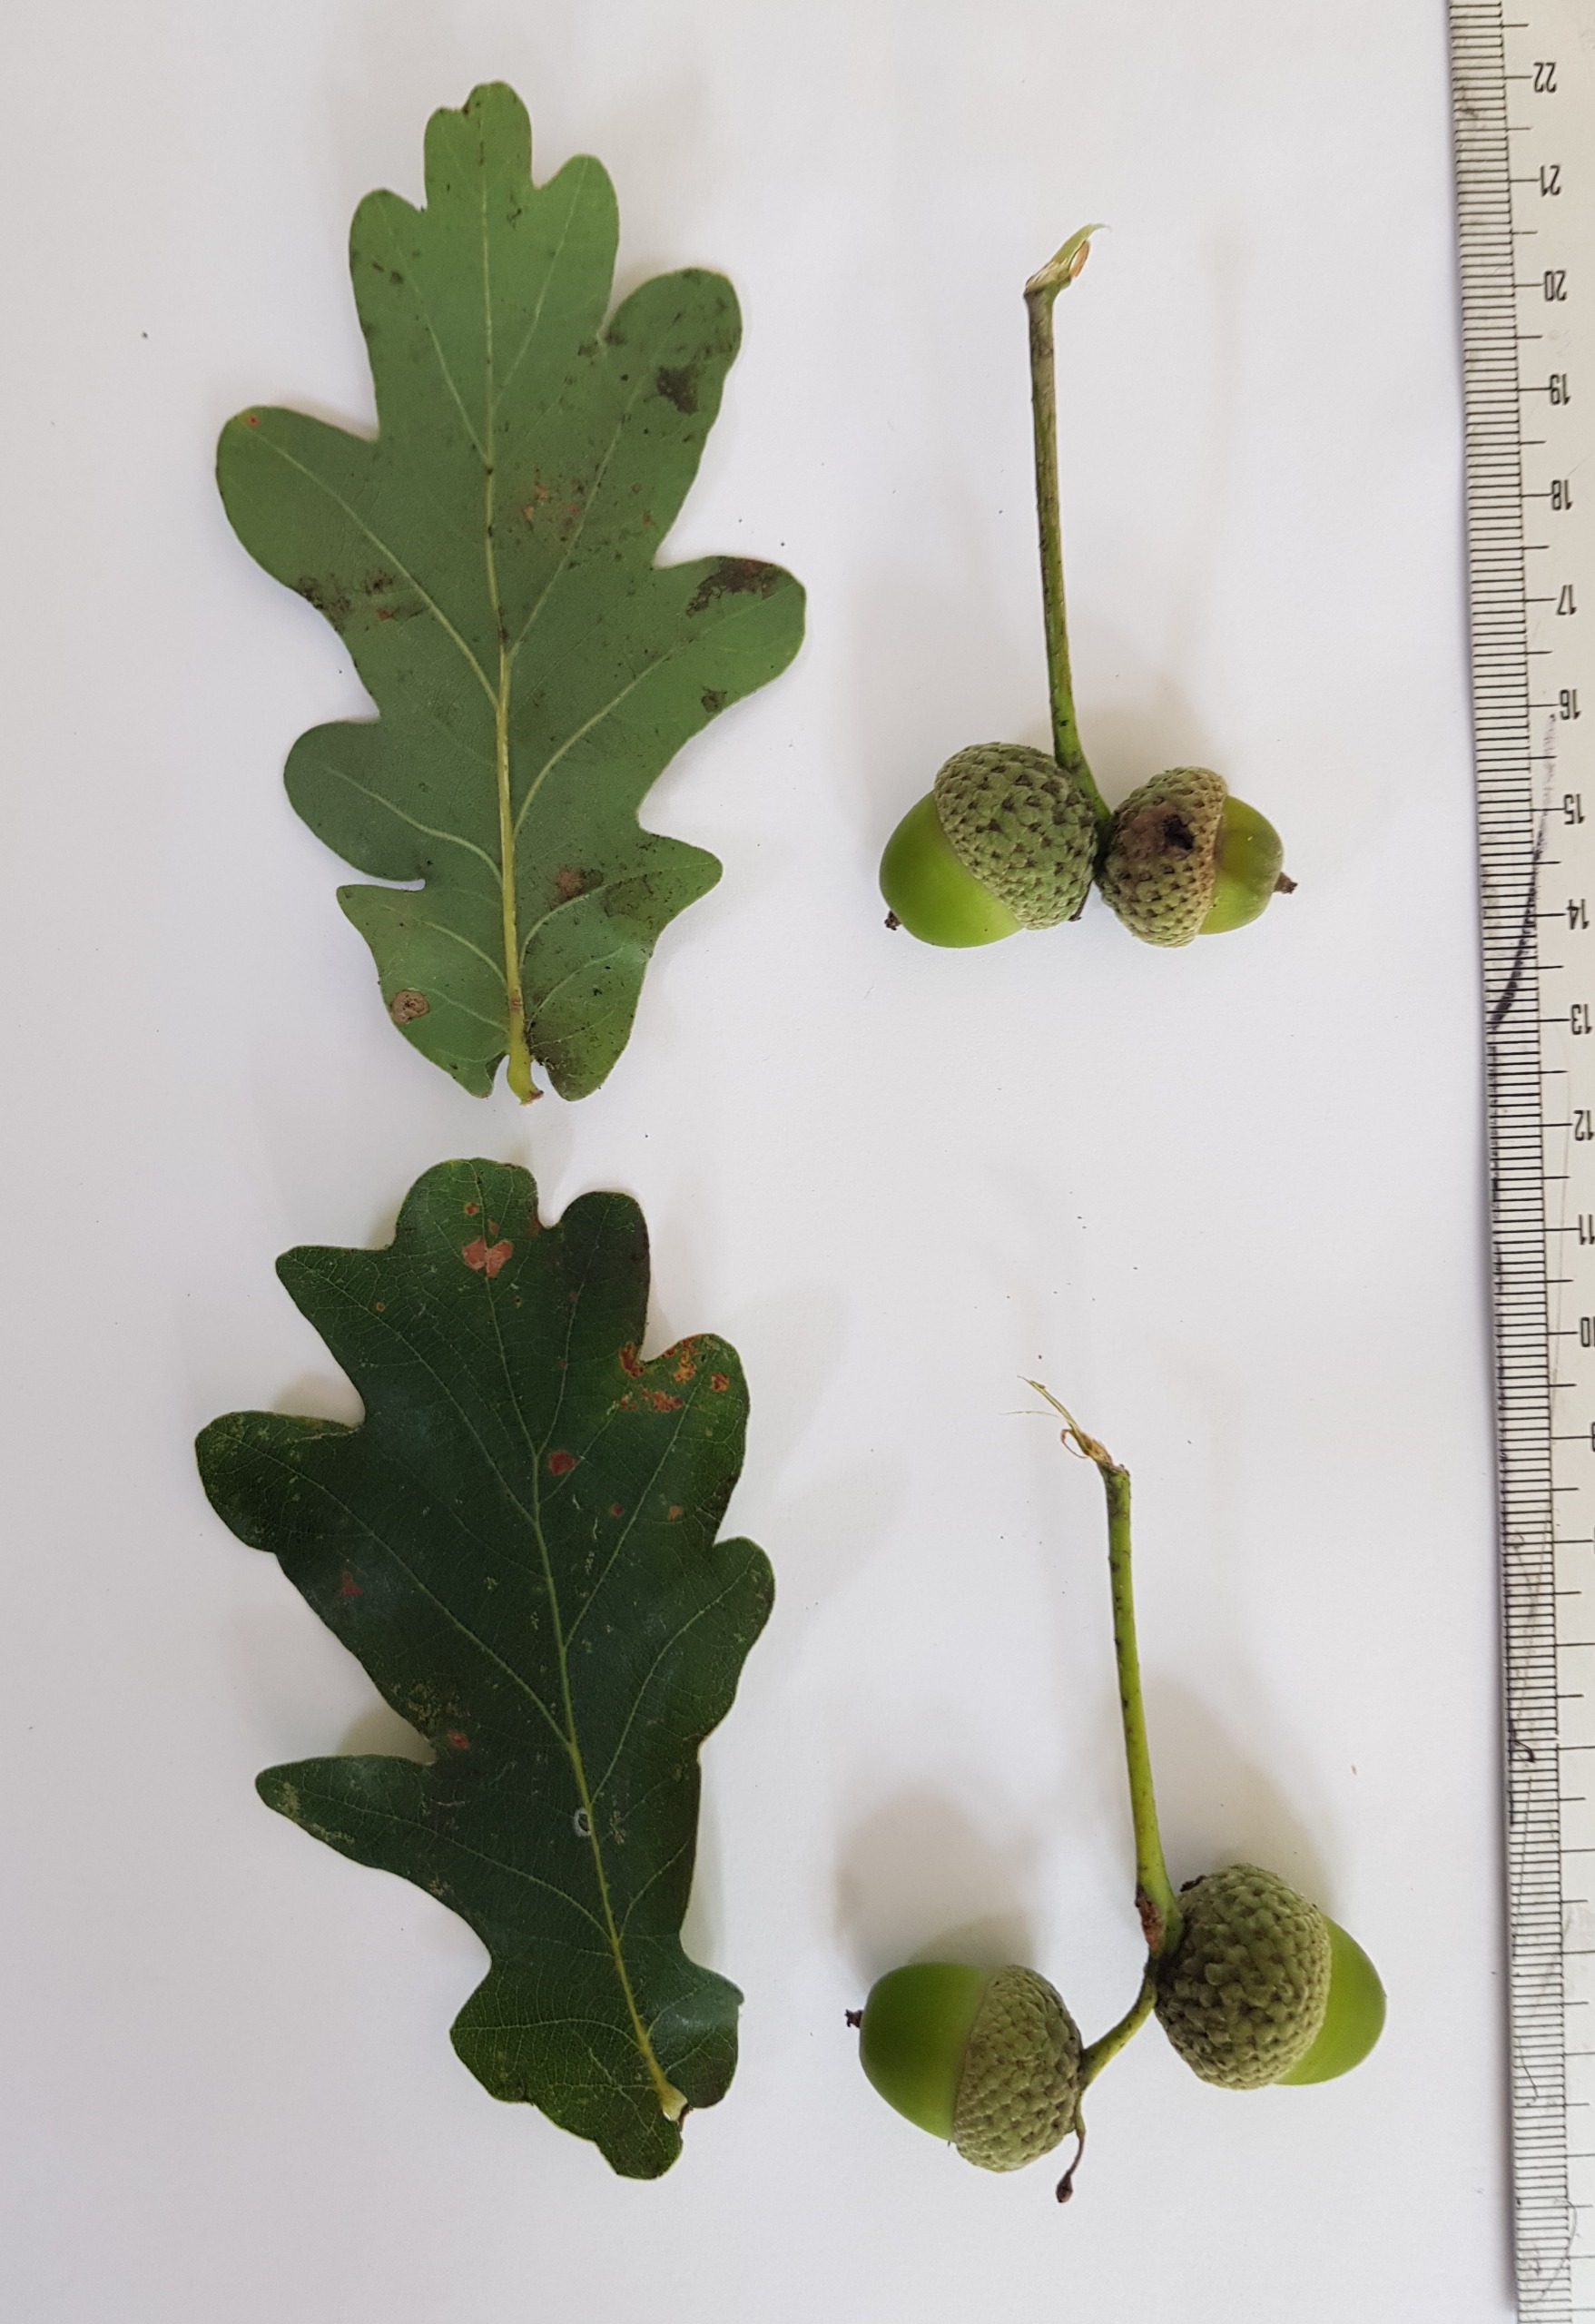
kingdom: Plantae
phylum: Tracheophyta
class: Magnoliopsida
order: Fagales
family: Fagaceae
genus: Quercus
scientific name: Quercus robur
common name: Stilk-eg/almindelig eg
